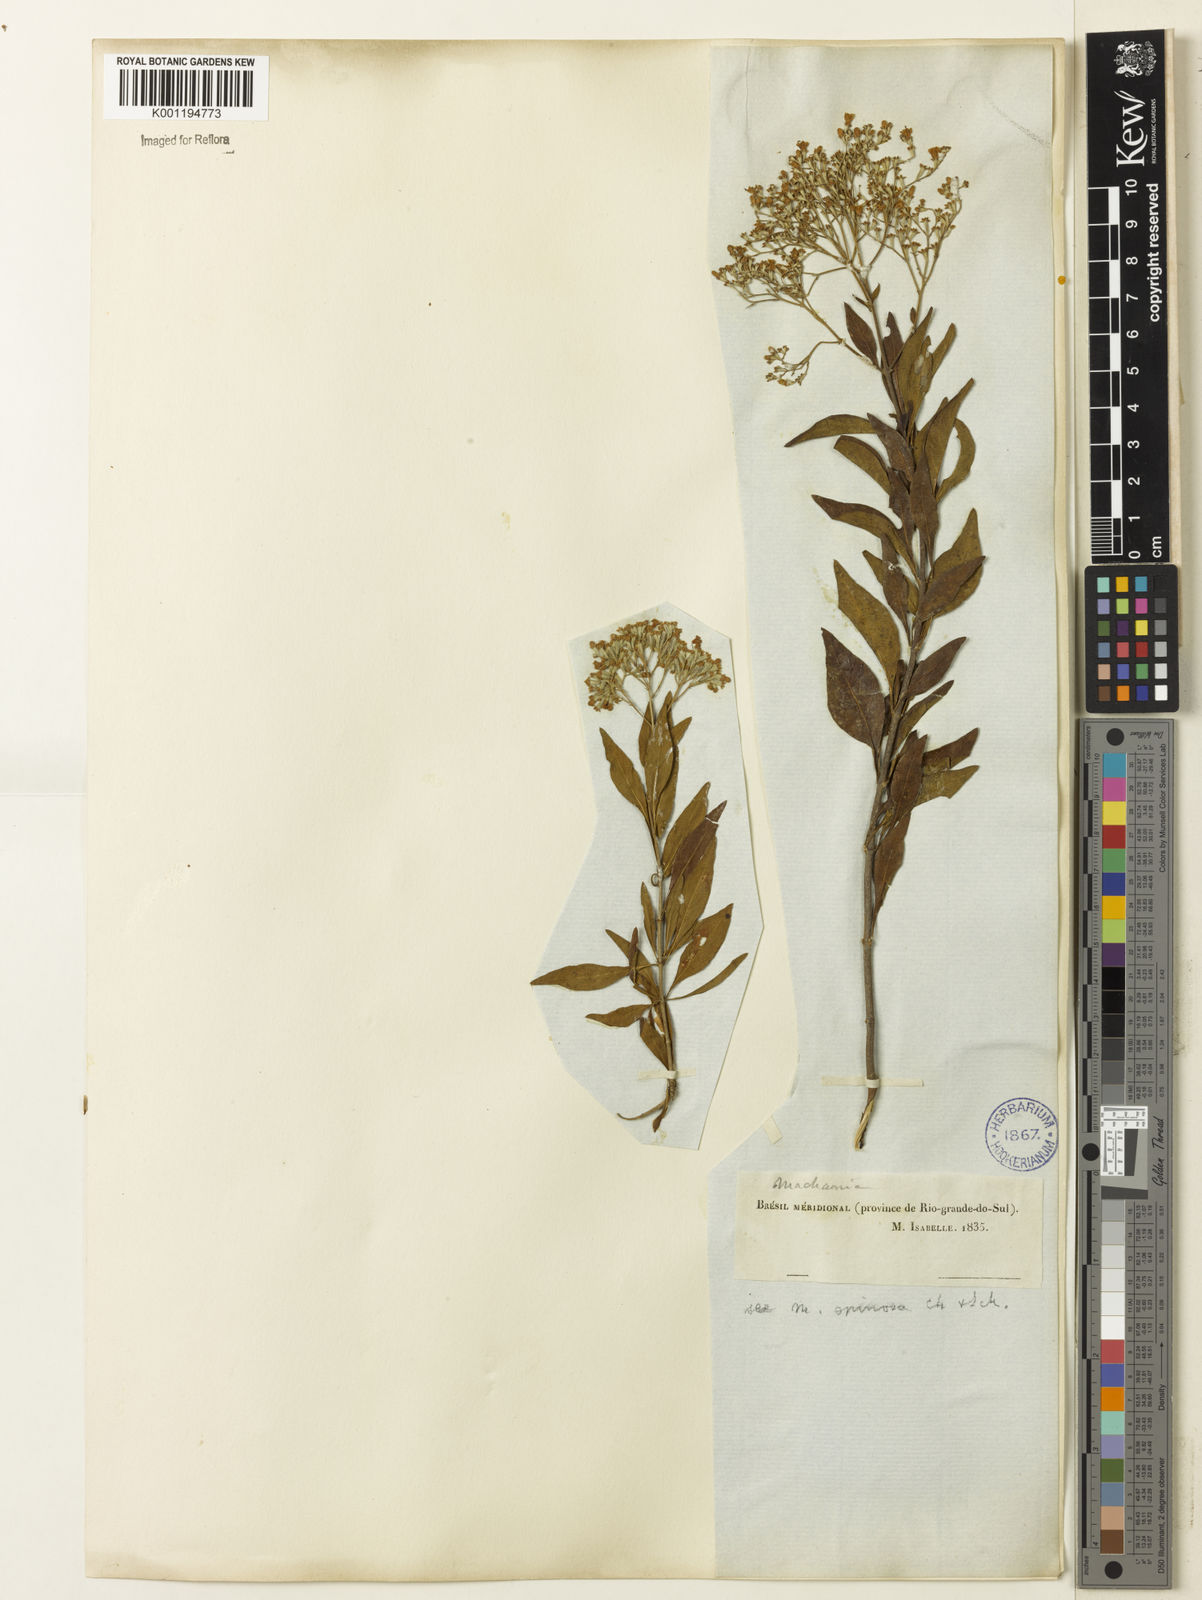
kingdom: Plantae
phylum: Tracheophyta
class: Magnoliopsida
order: Gentianales
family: Rubiaceae
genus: Machaonia
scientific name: Machaonia brasiliensis
